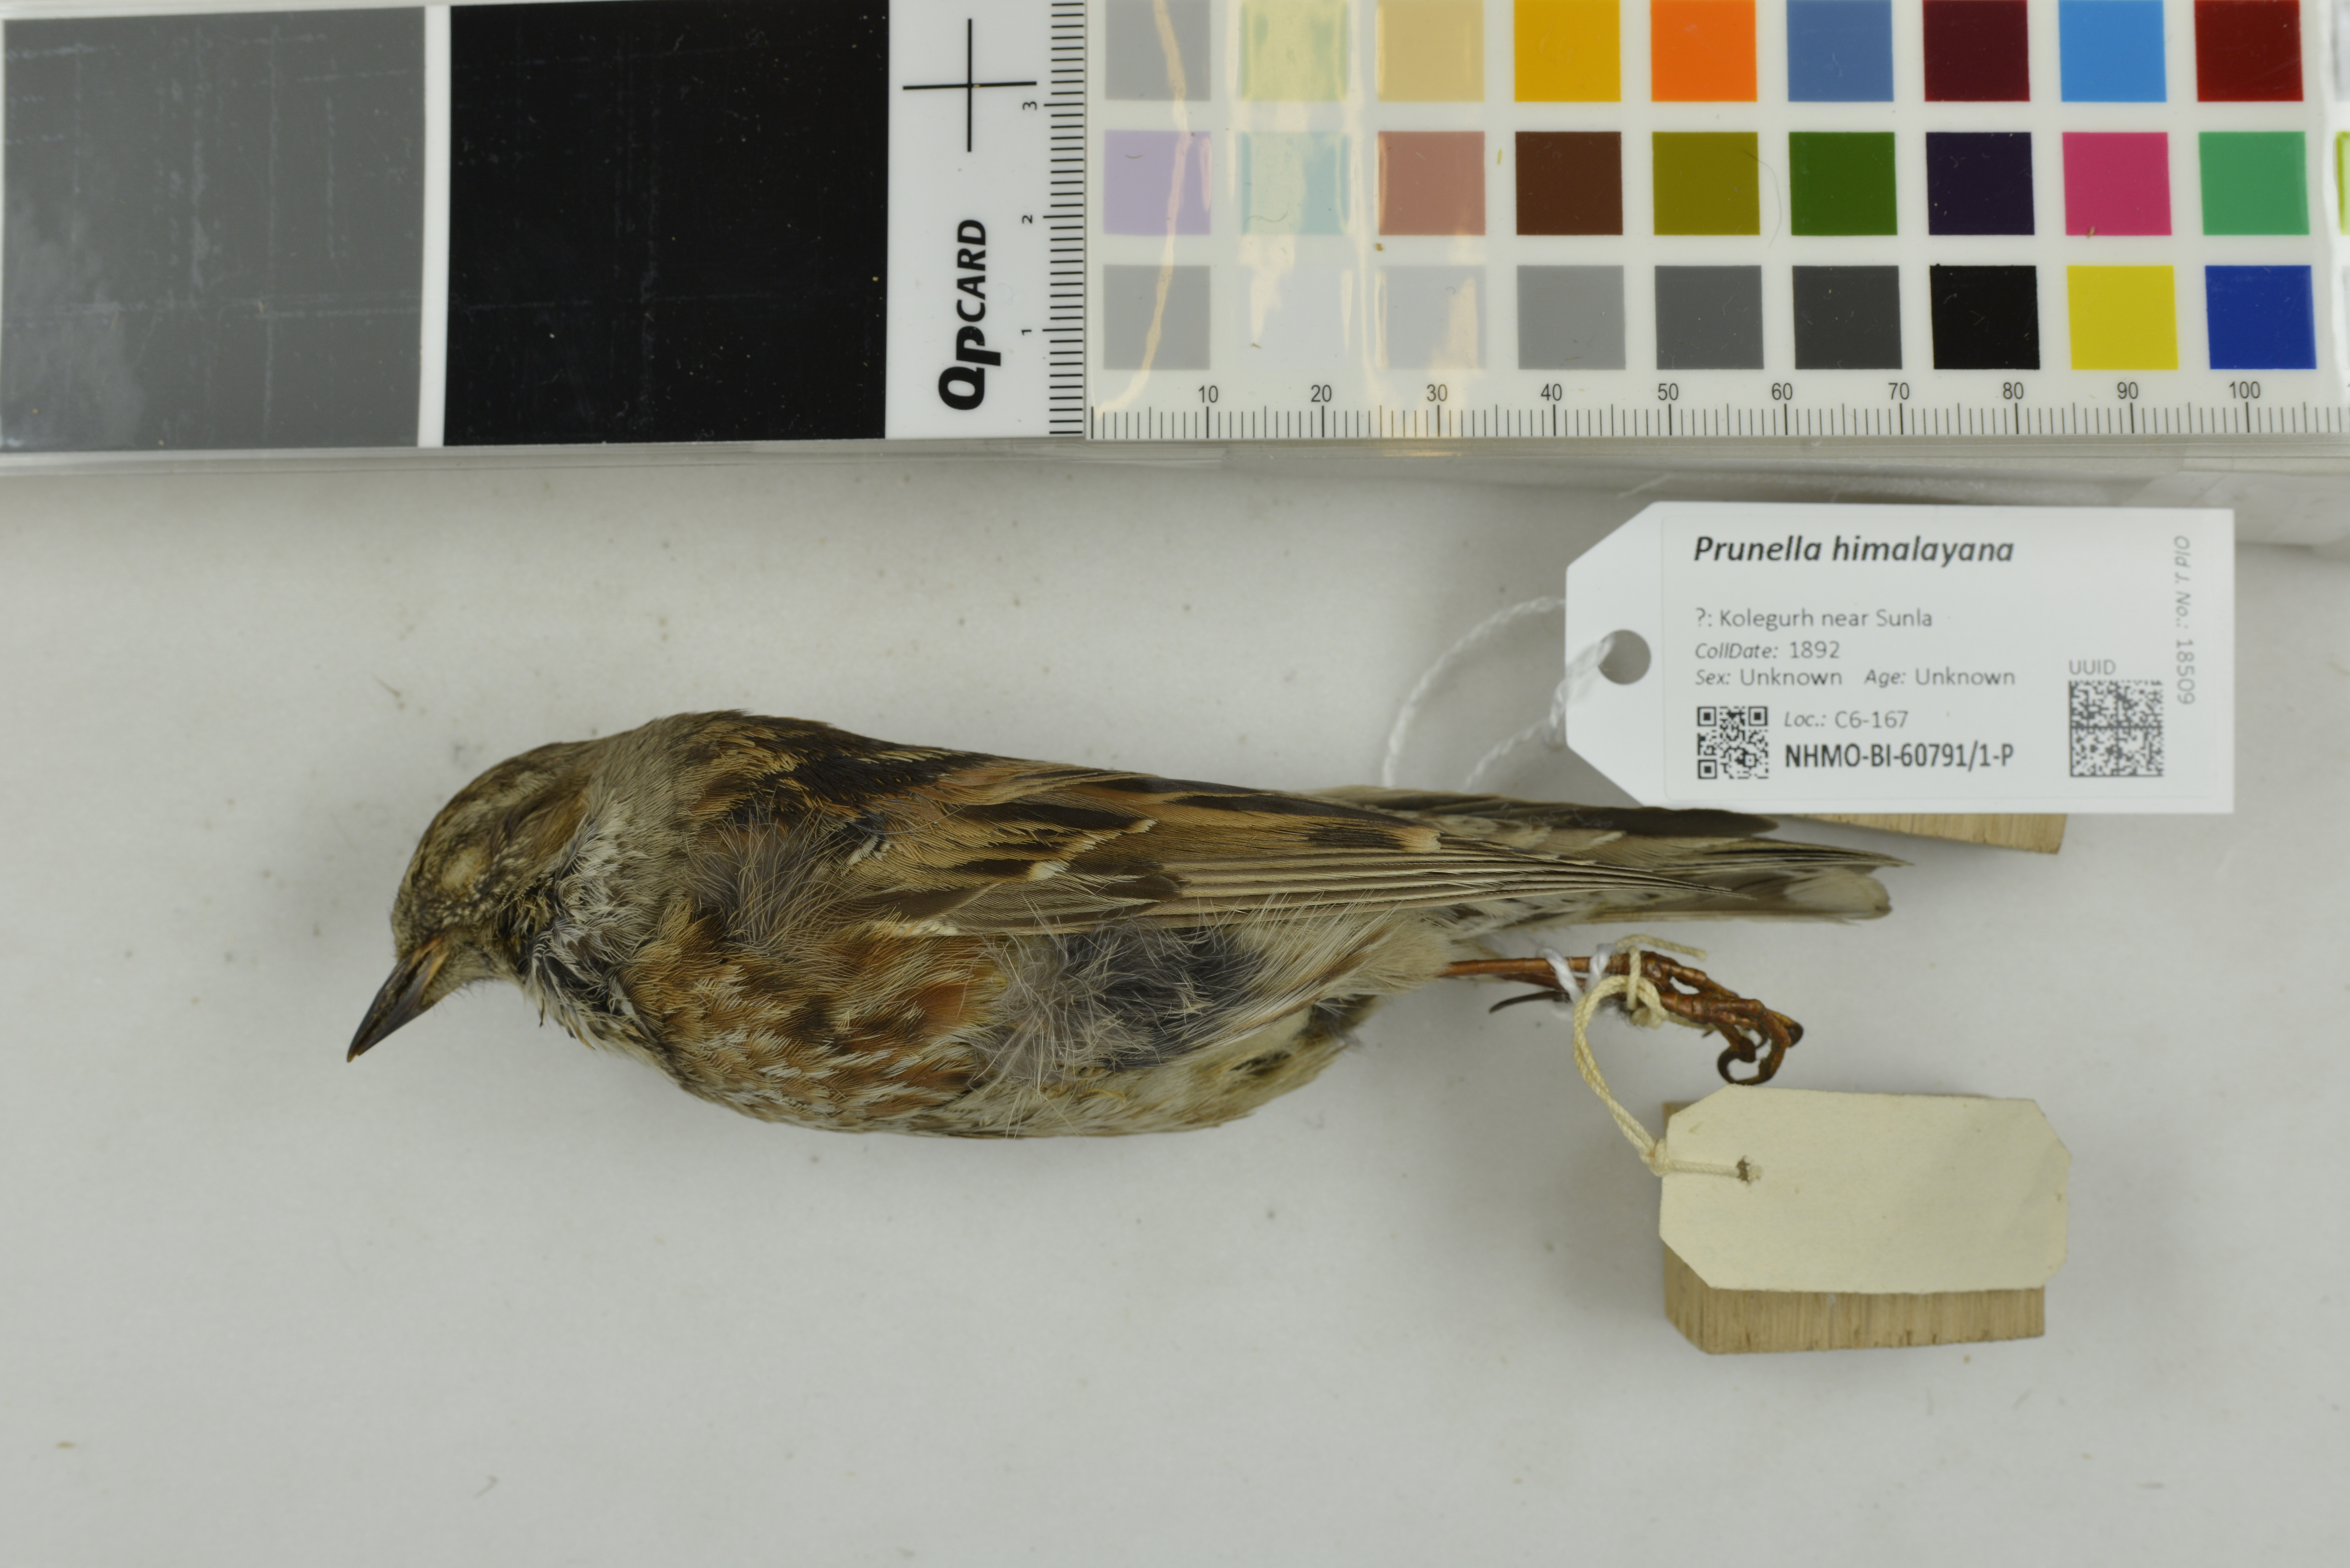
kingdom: Animalia
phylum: Chordata
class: Aves
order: Passeriformes
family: Prunellidae
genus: Prunella
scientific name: Prunella himalayana
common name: Altai accentor
